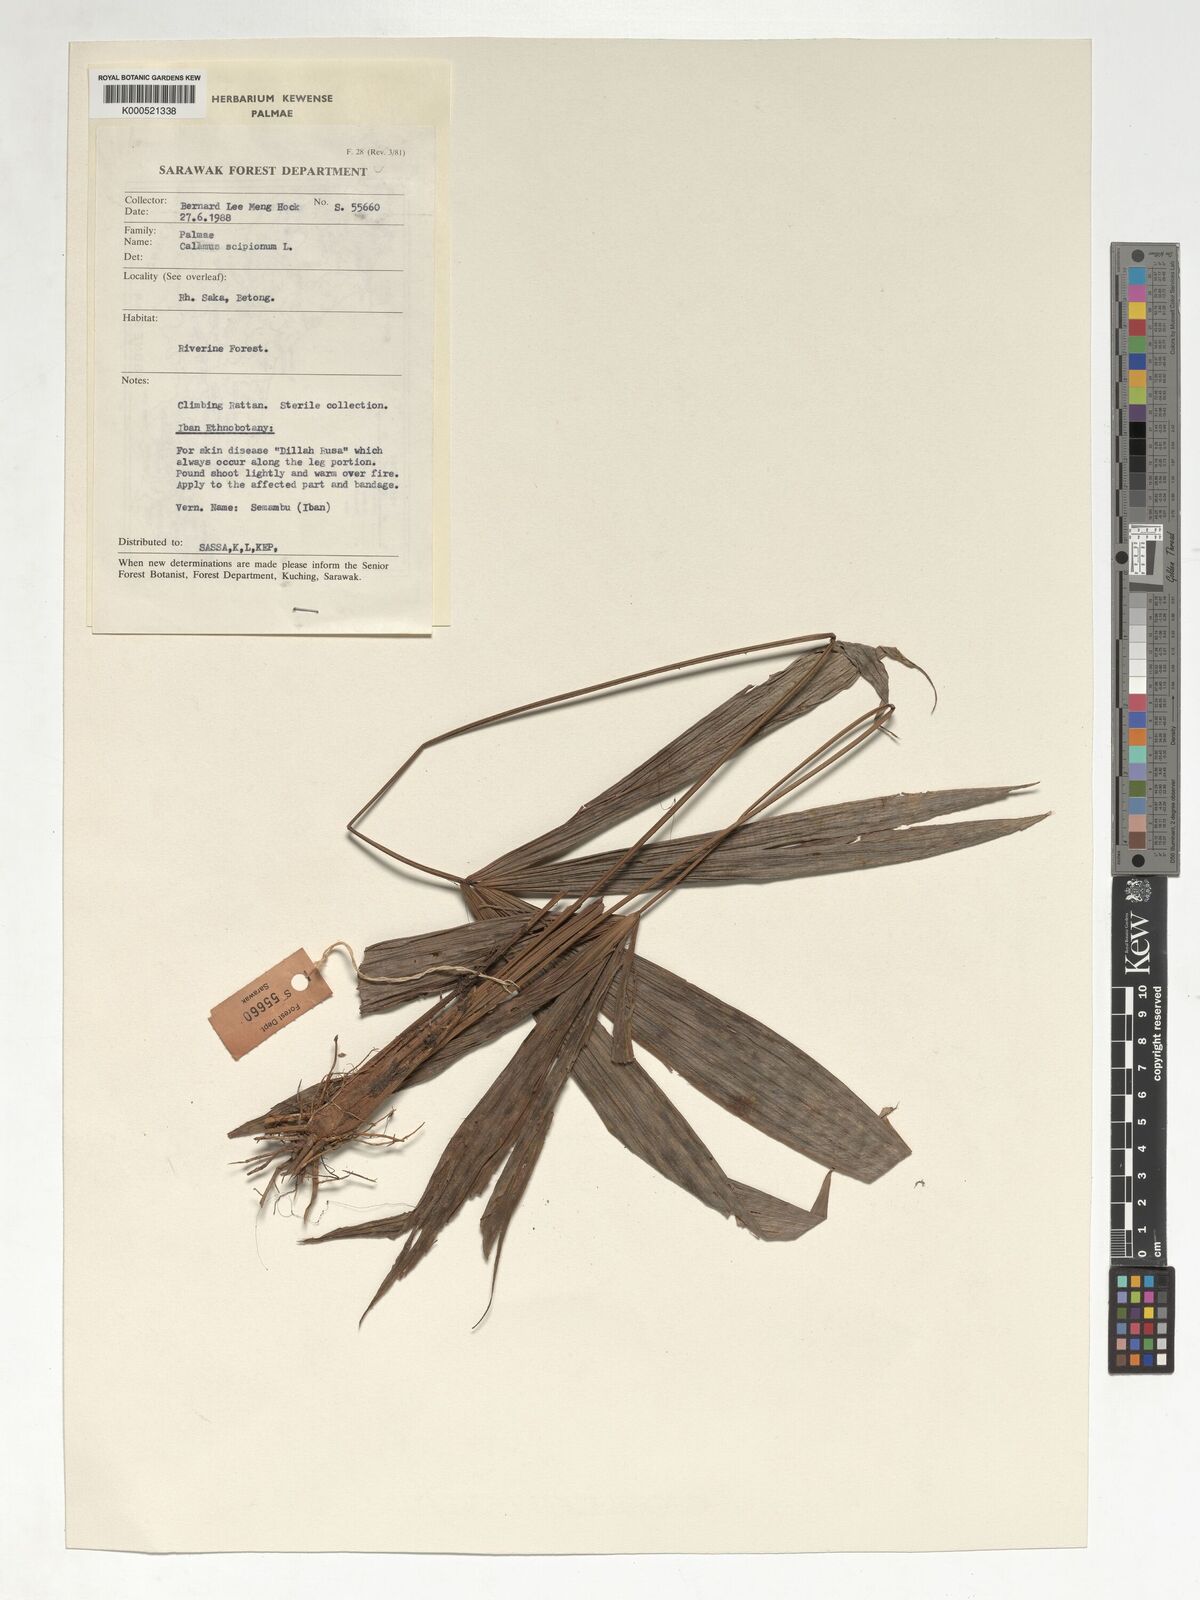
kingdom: Plantae
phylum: Tracheophyta
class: Liliopsida
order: Arecales
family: Arecaceae
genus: Calamus
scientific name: Calamus scipionum
